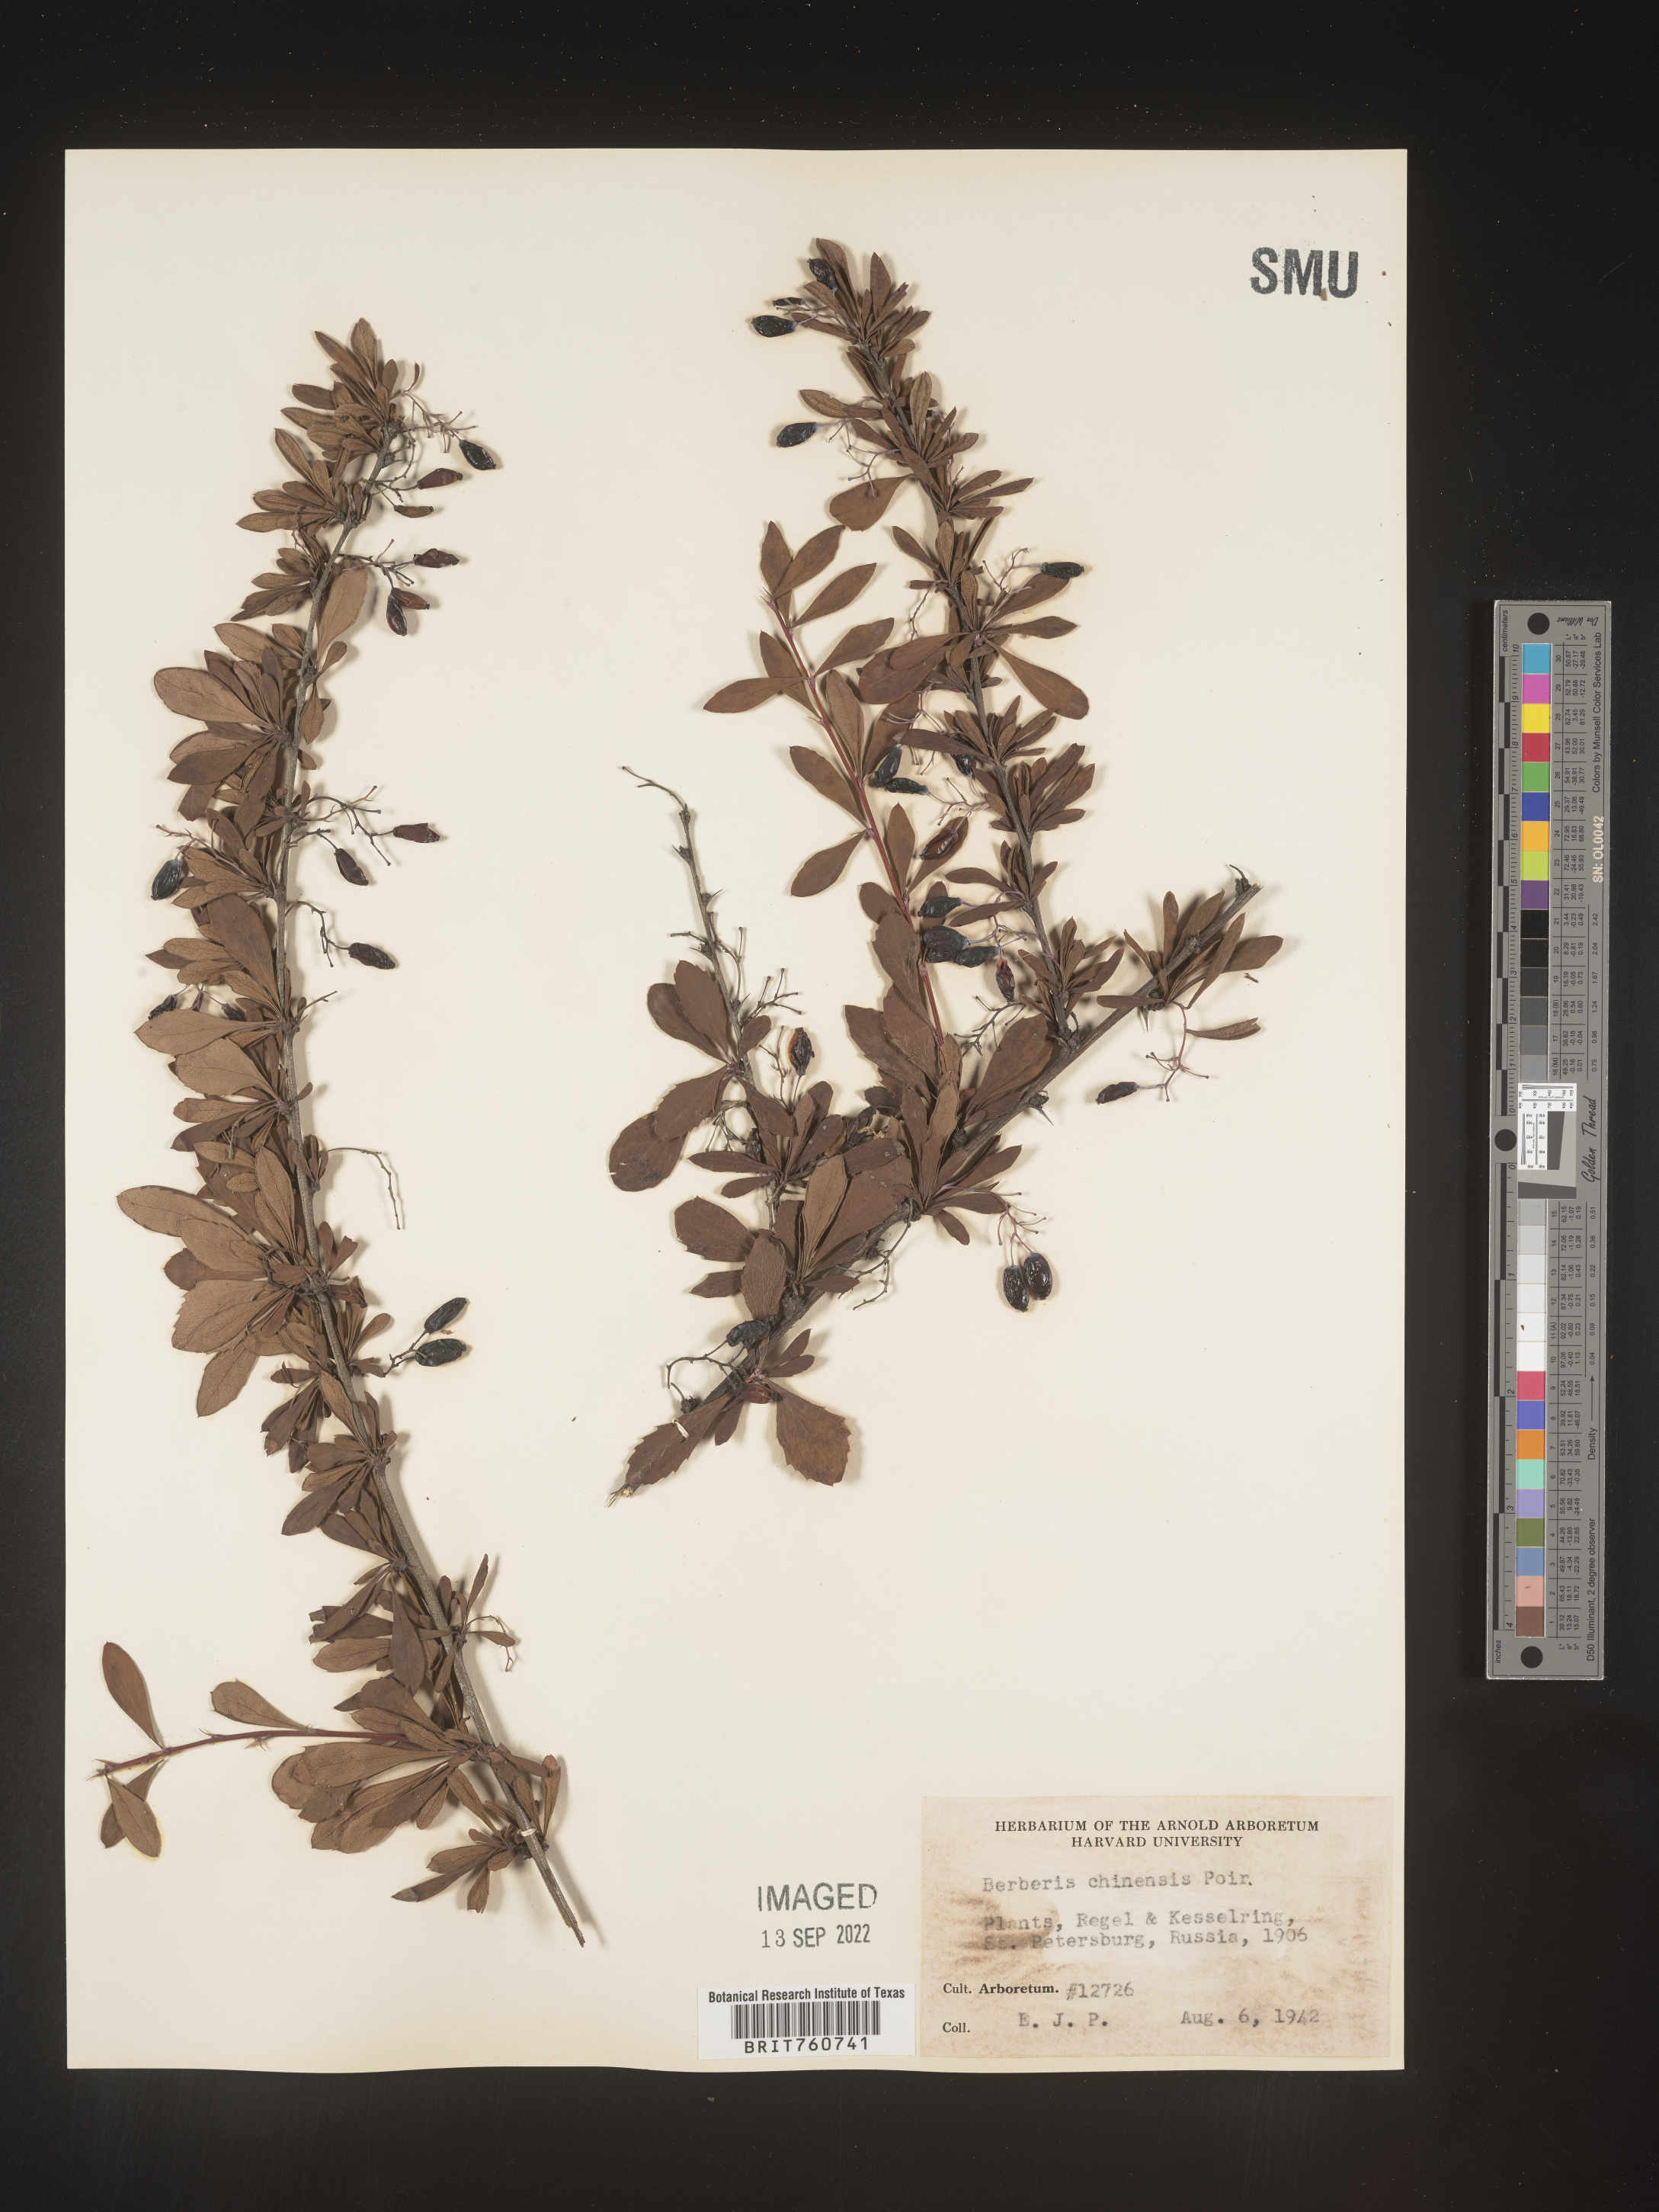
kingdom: Plantae
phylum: Tracheophyta
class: Magnoliopsida
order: Ranunculales
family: Berberidaceae
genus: Berberis
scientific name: Berberis
